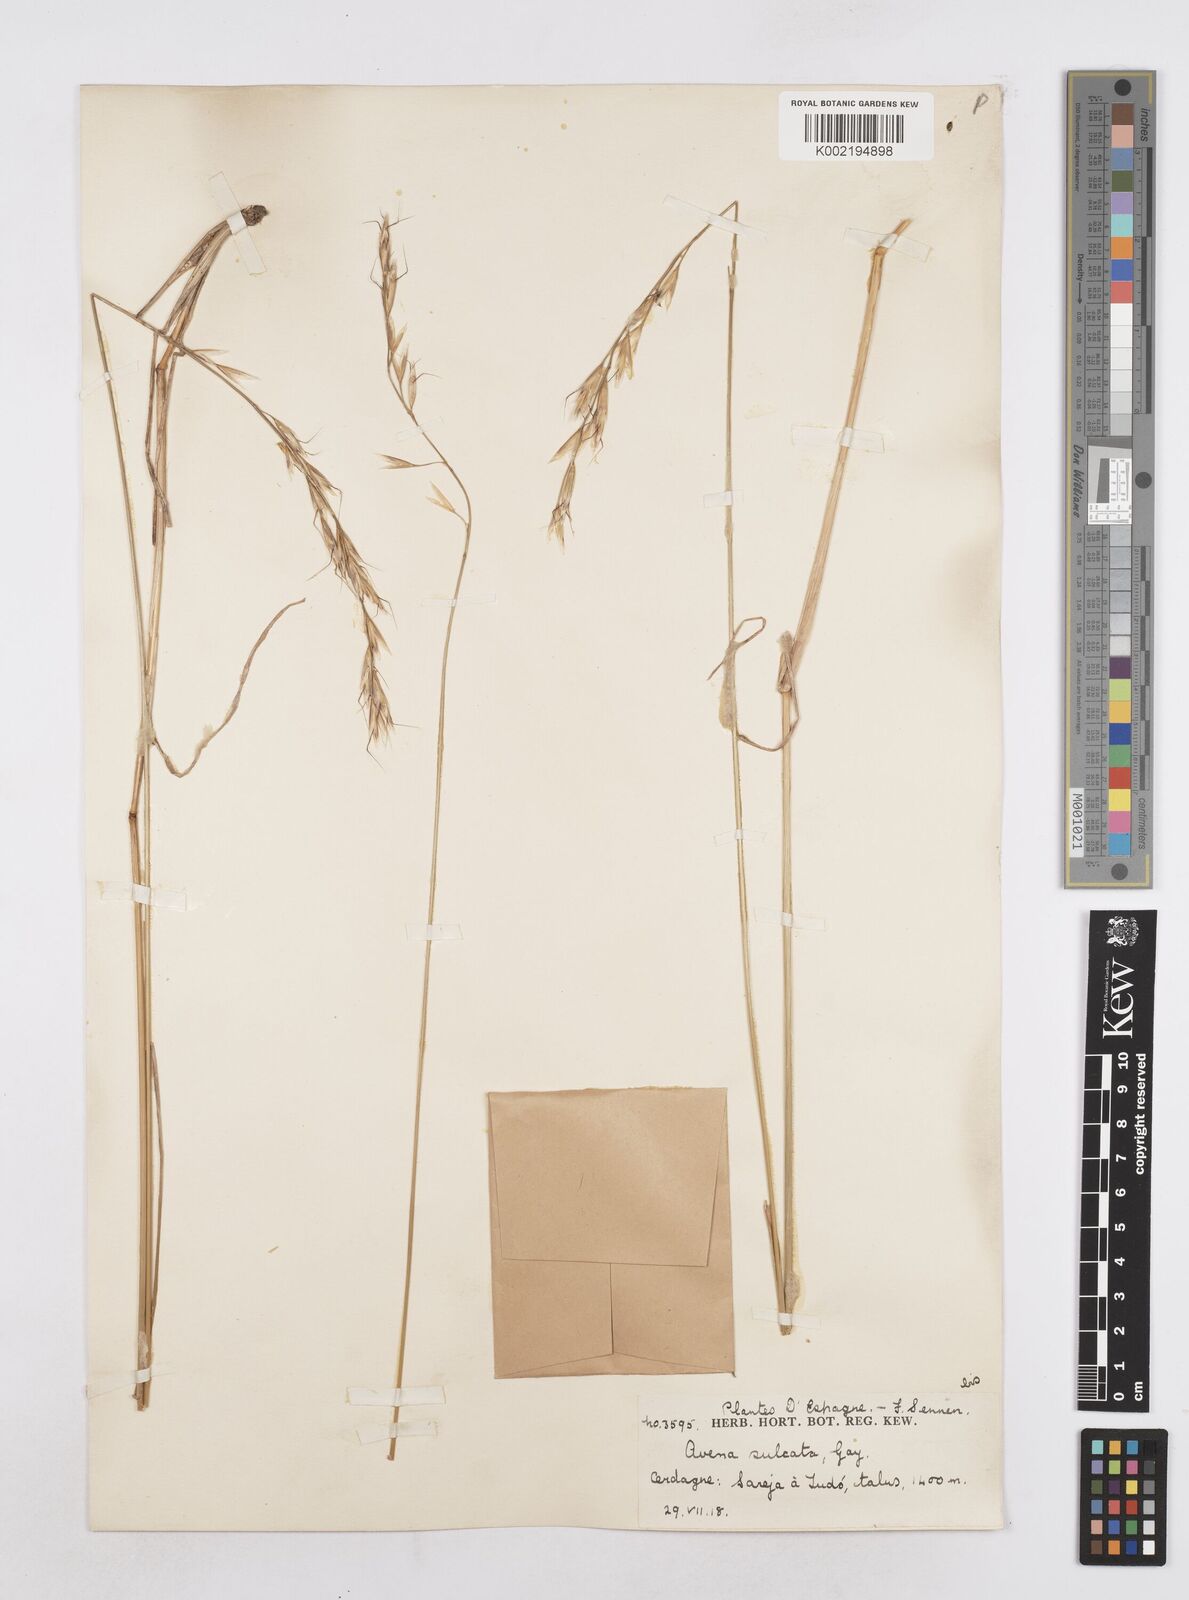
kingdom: Plantae
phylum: Tracheophyta
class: Liliopsida
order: Poales
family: Poaceae
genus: Helictotrichon
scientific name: Helictotrichon
